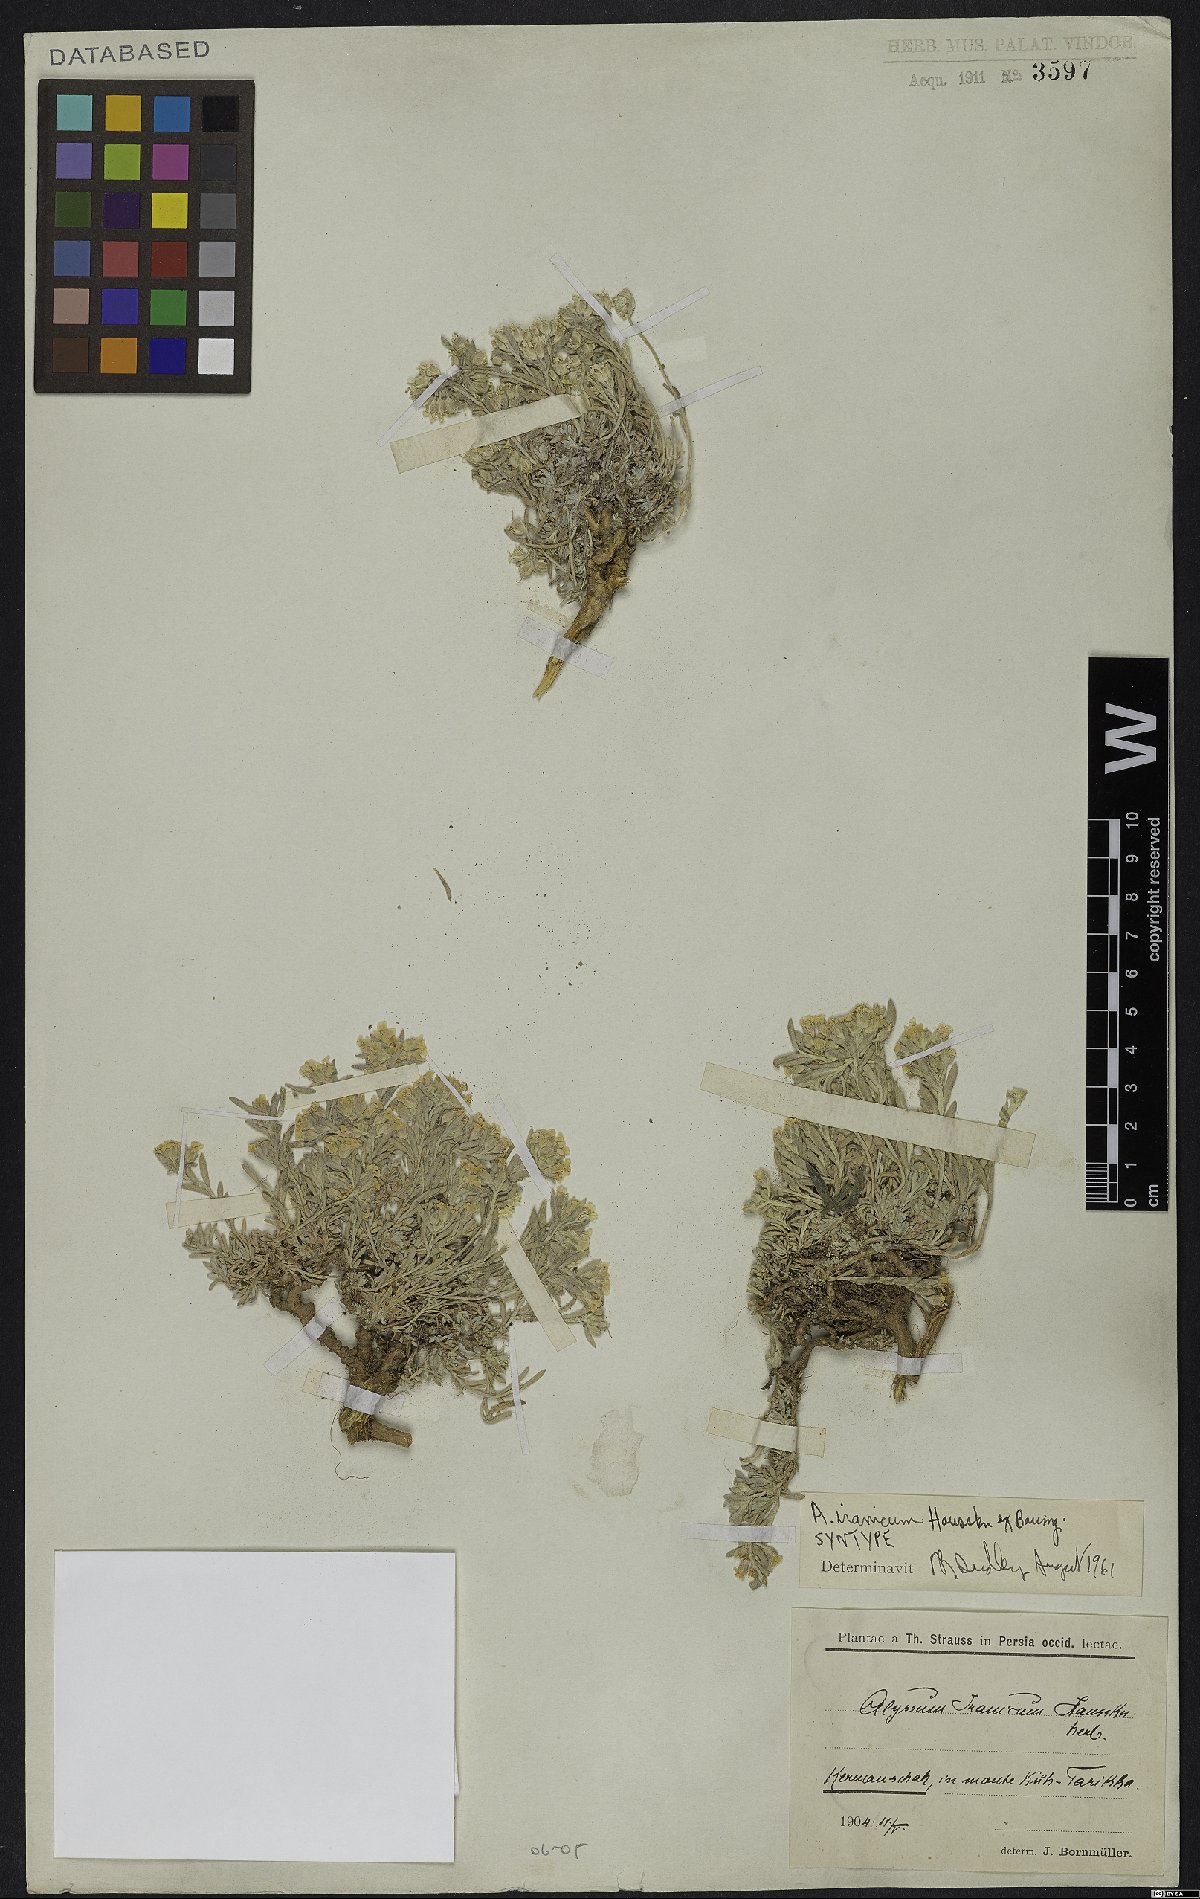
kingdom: Plantae
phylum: Tracheophyta
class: Magnoliopsida
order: Brassicales
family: Brassicaceae
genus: Alyssum
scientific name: Alyssum iranicum
